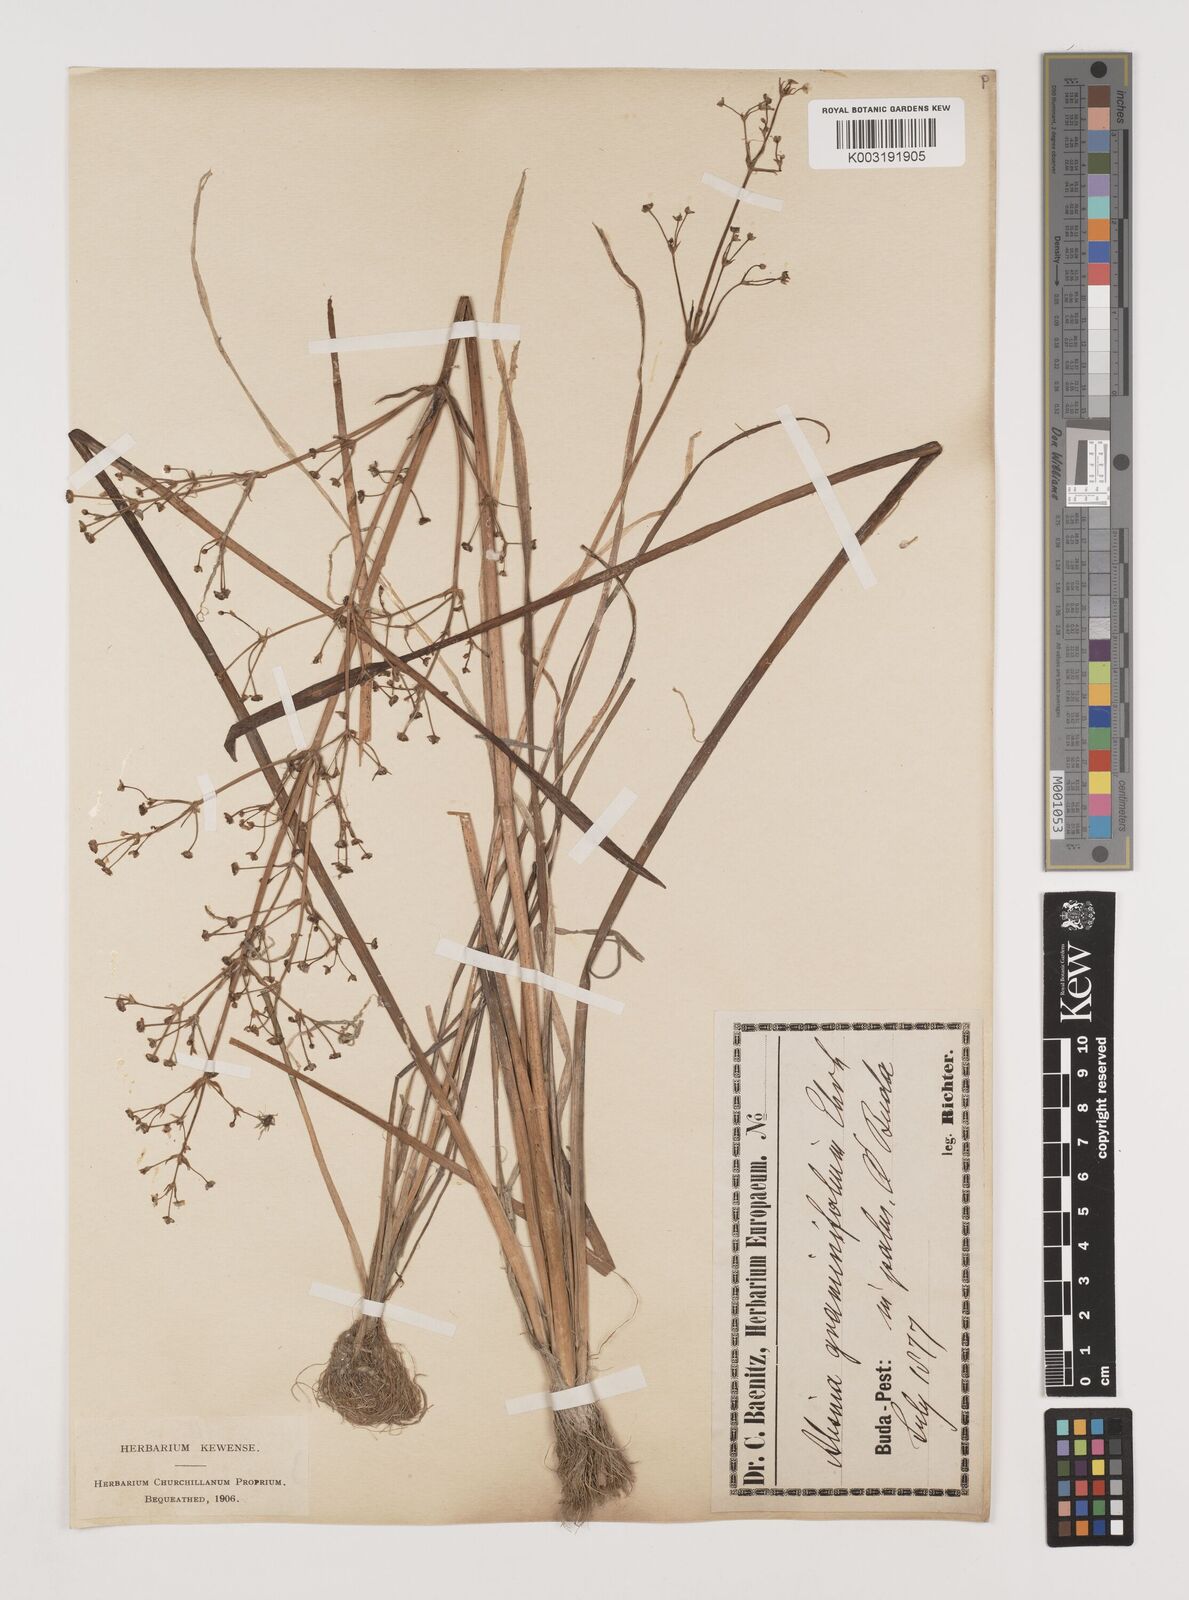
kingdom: Plantae
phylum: Tracheophyta
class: Liliopsida
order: Alismatales
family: Alismataceae
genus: Alisma
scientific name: Alisma gramineum
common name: Ribbon-leaved water-plantain
